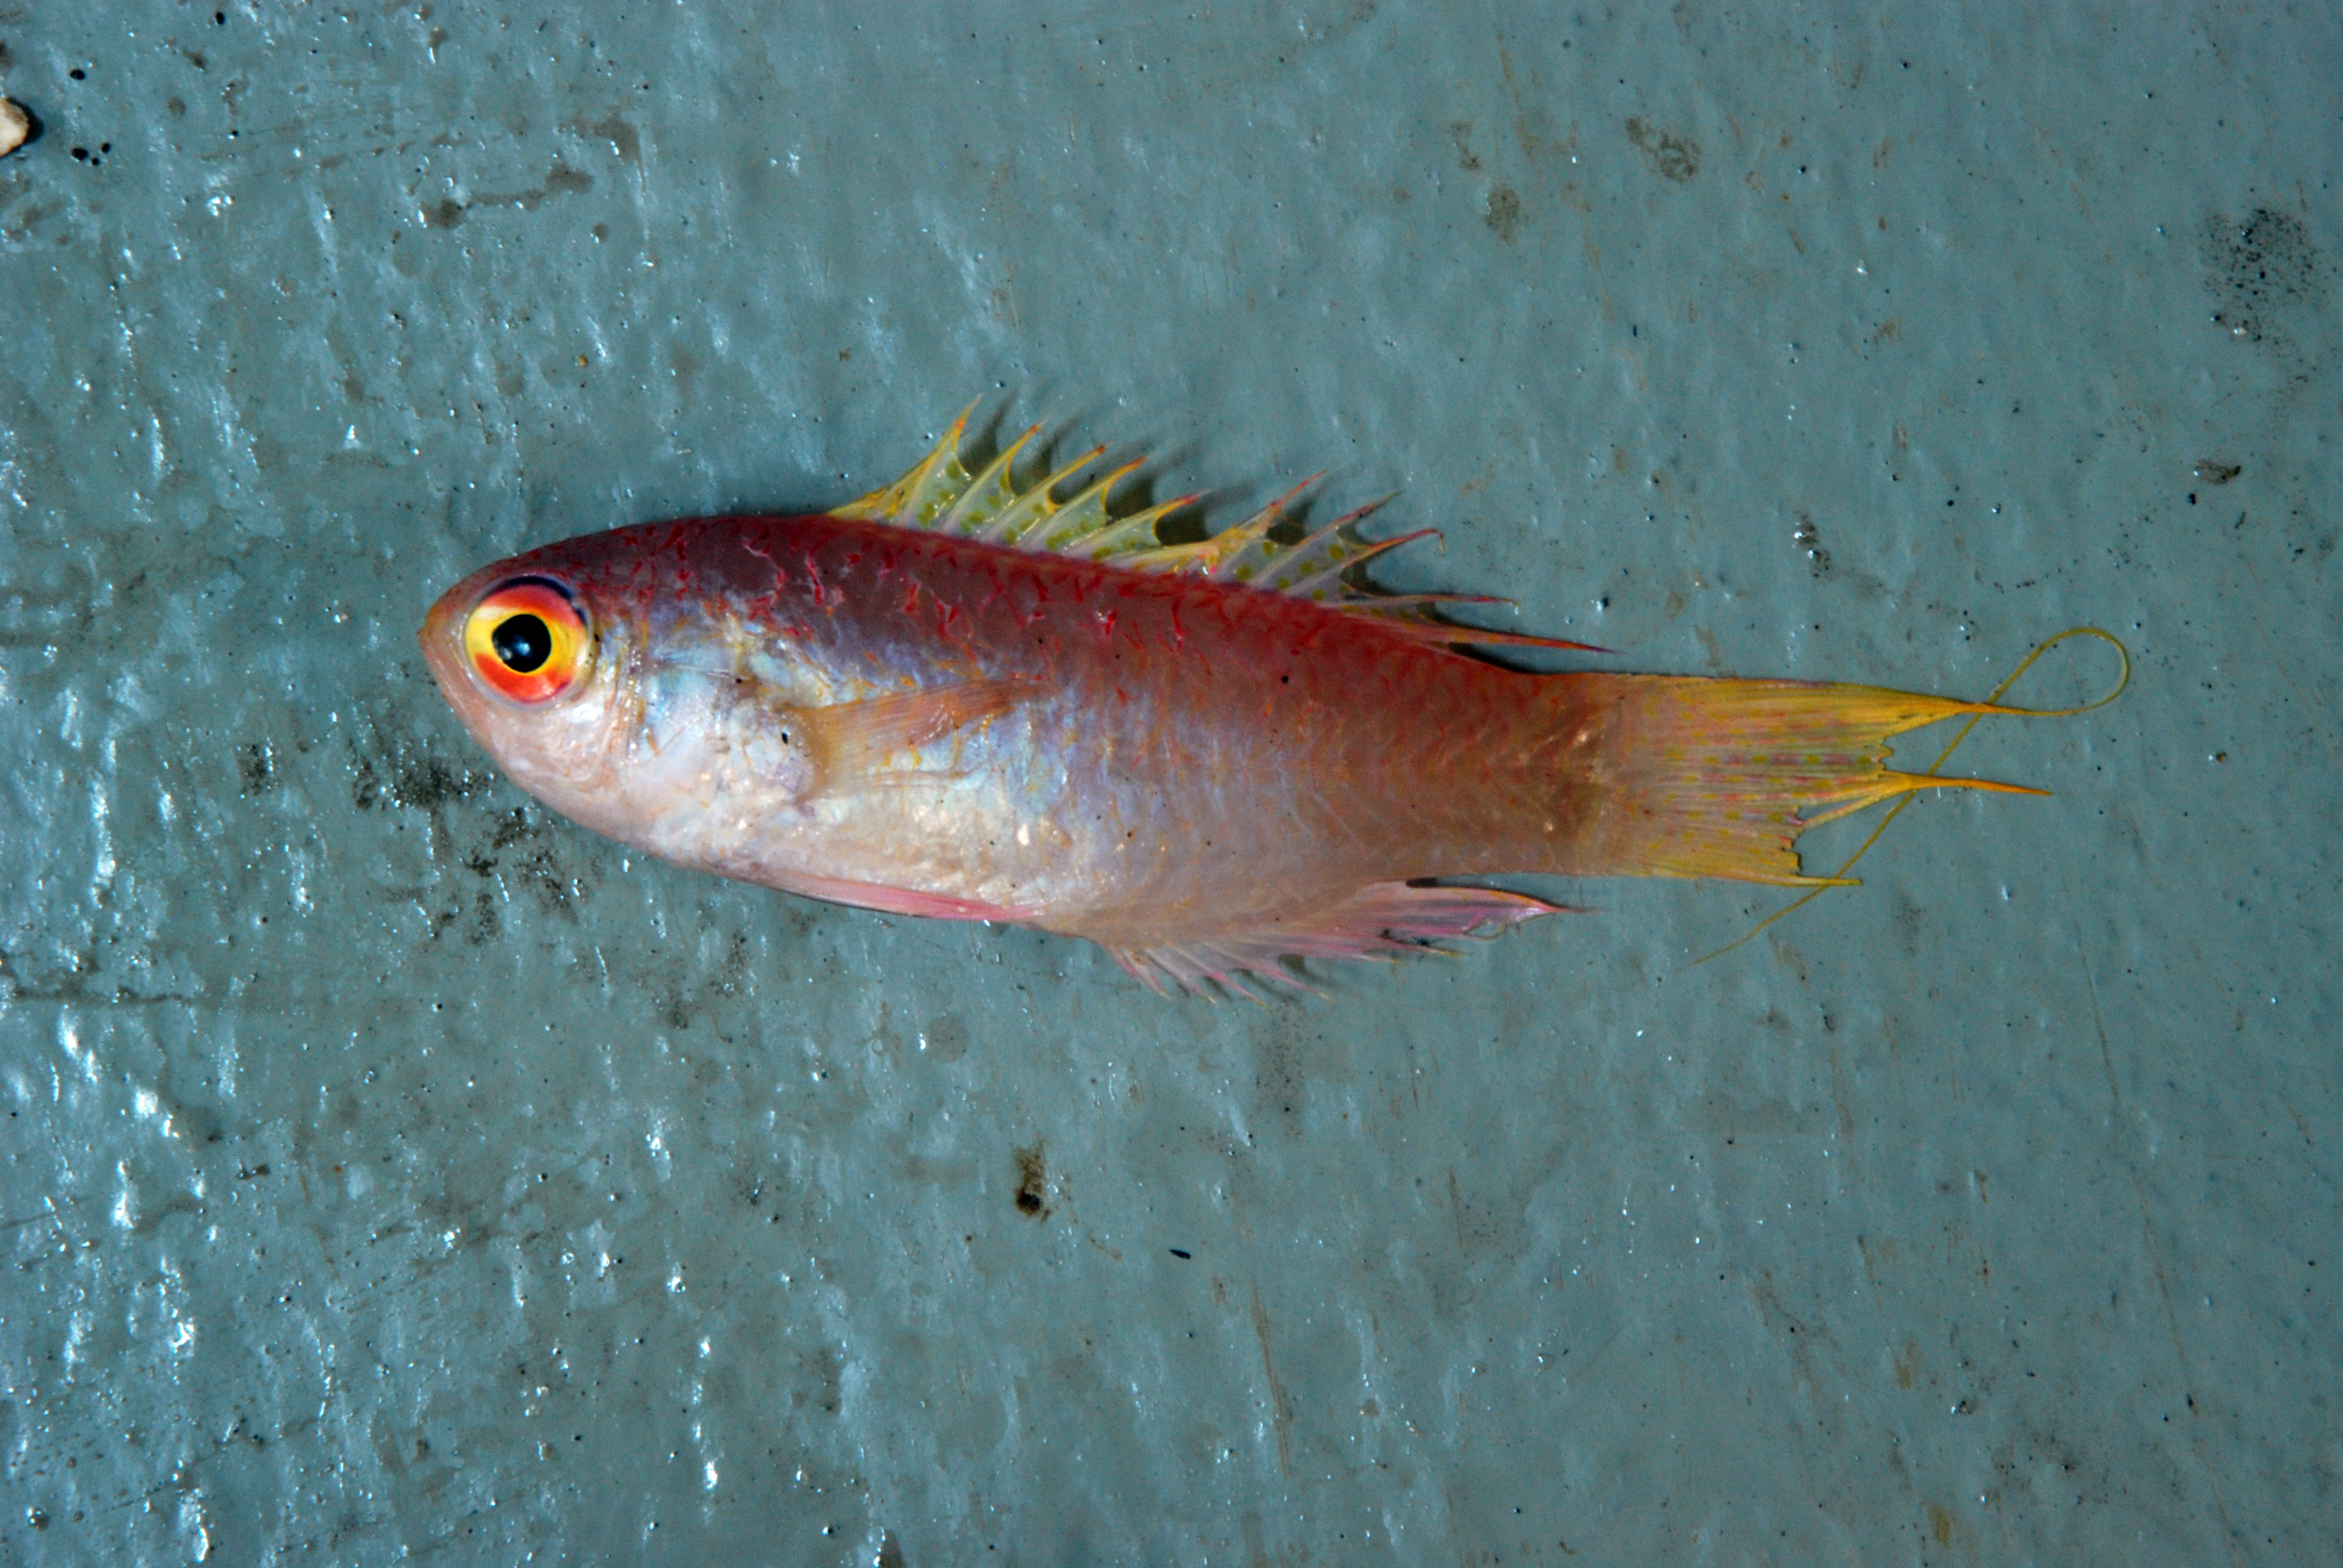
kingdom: Animalia
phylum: Chordata
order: Perciformes
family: Callanthiidae
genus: Grammatonotus
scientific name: Grammatonotus
